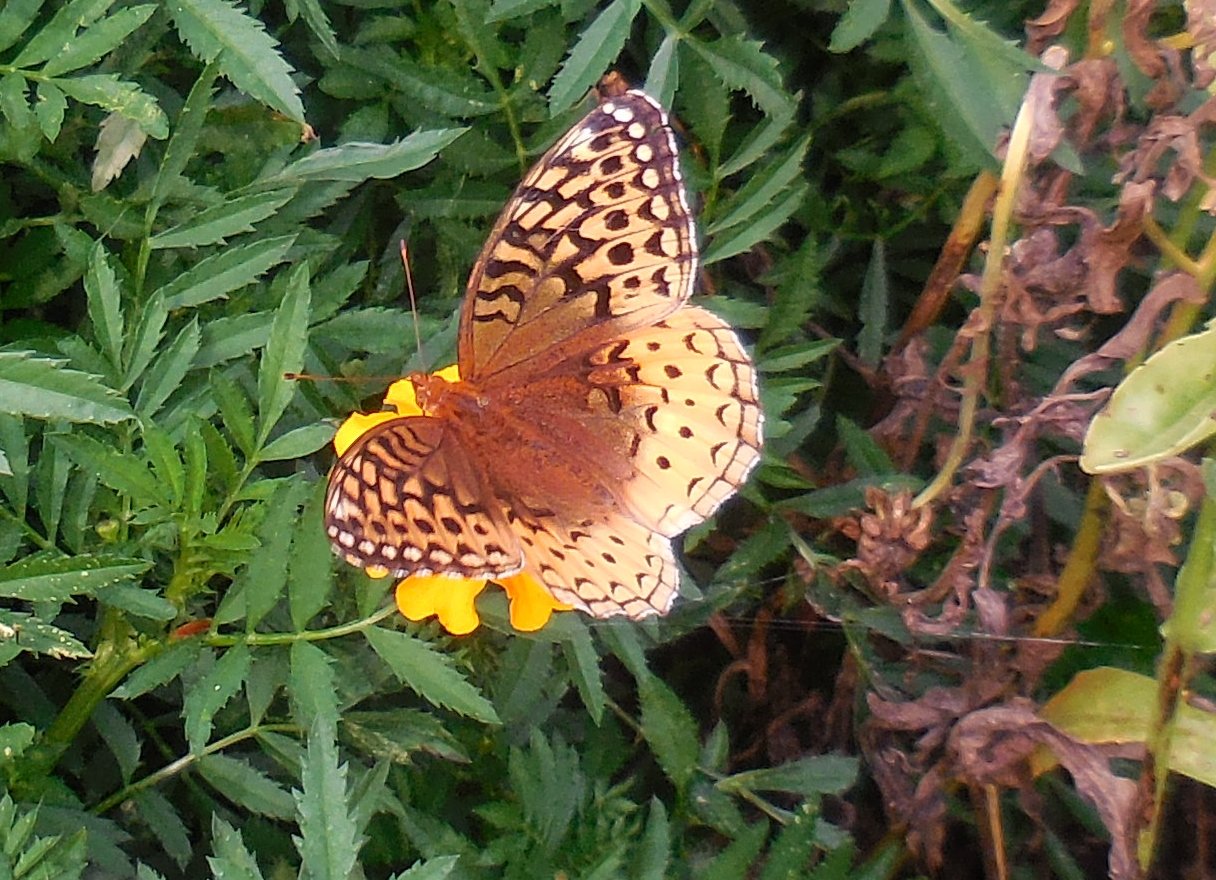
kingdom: Animalia
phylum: Arthropoda
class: Insecta
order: Lepidoptera
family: Nymphalidae
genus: Speyeria
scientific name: Speyeria cybele
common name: Great Spangled Fritillary
